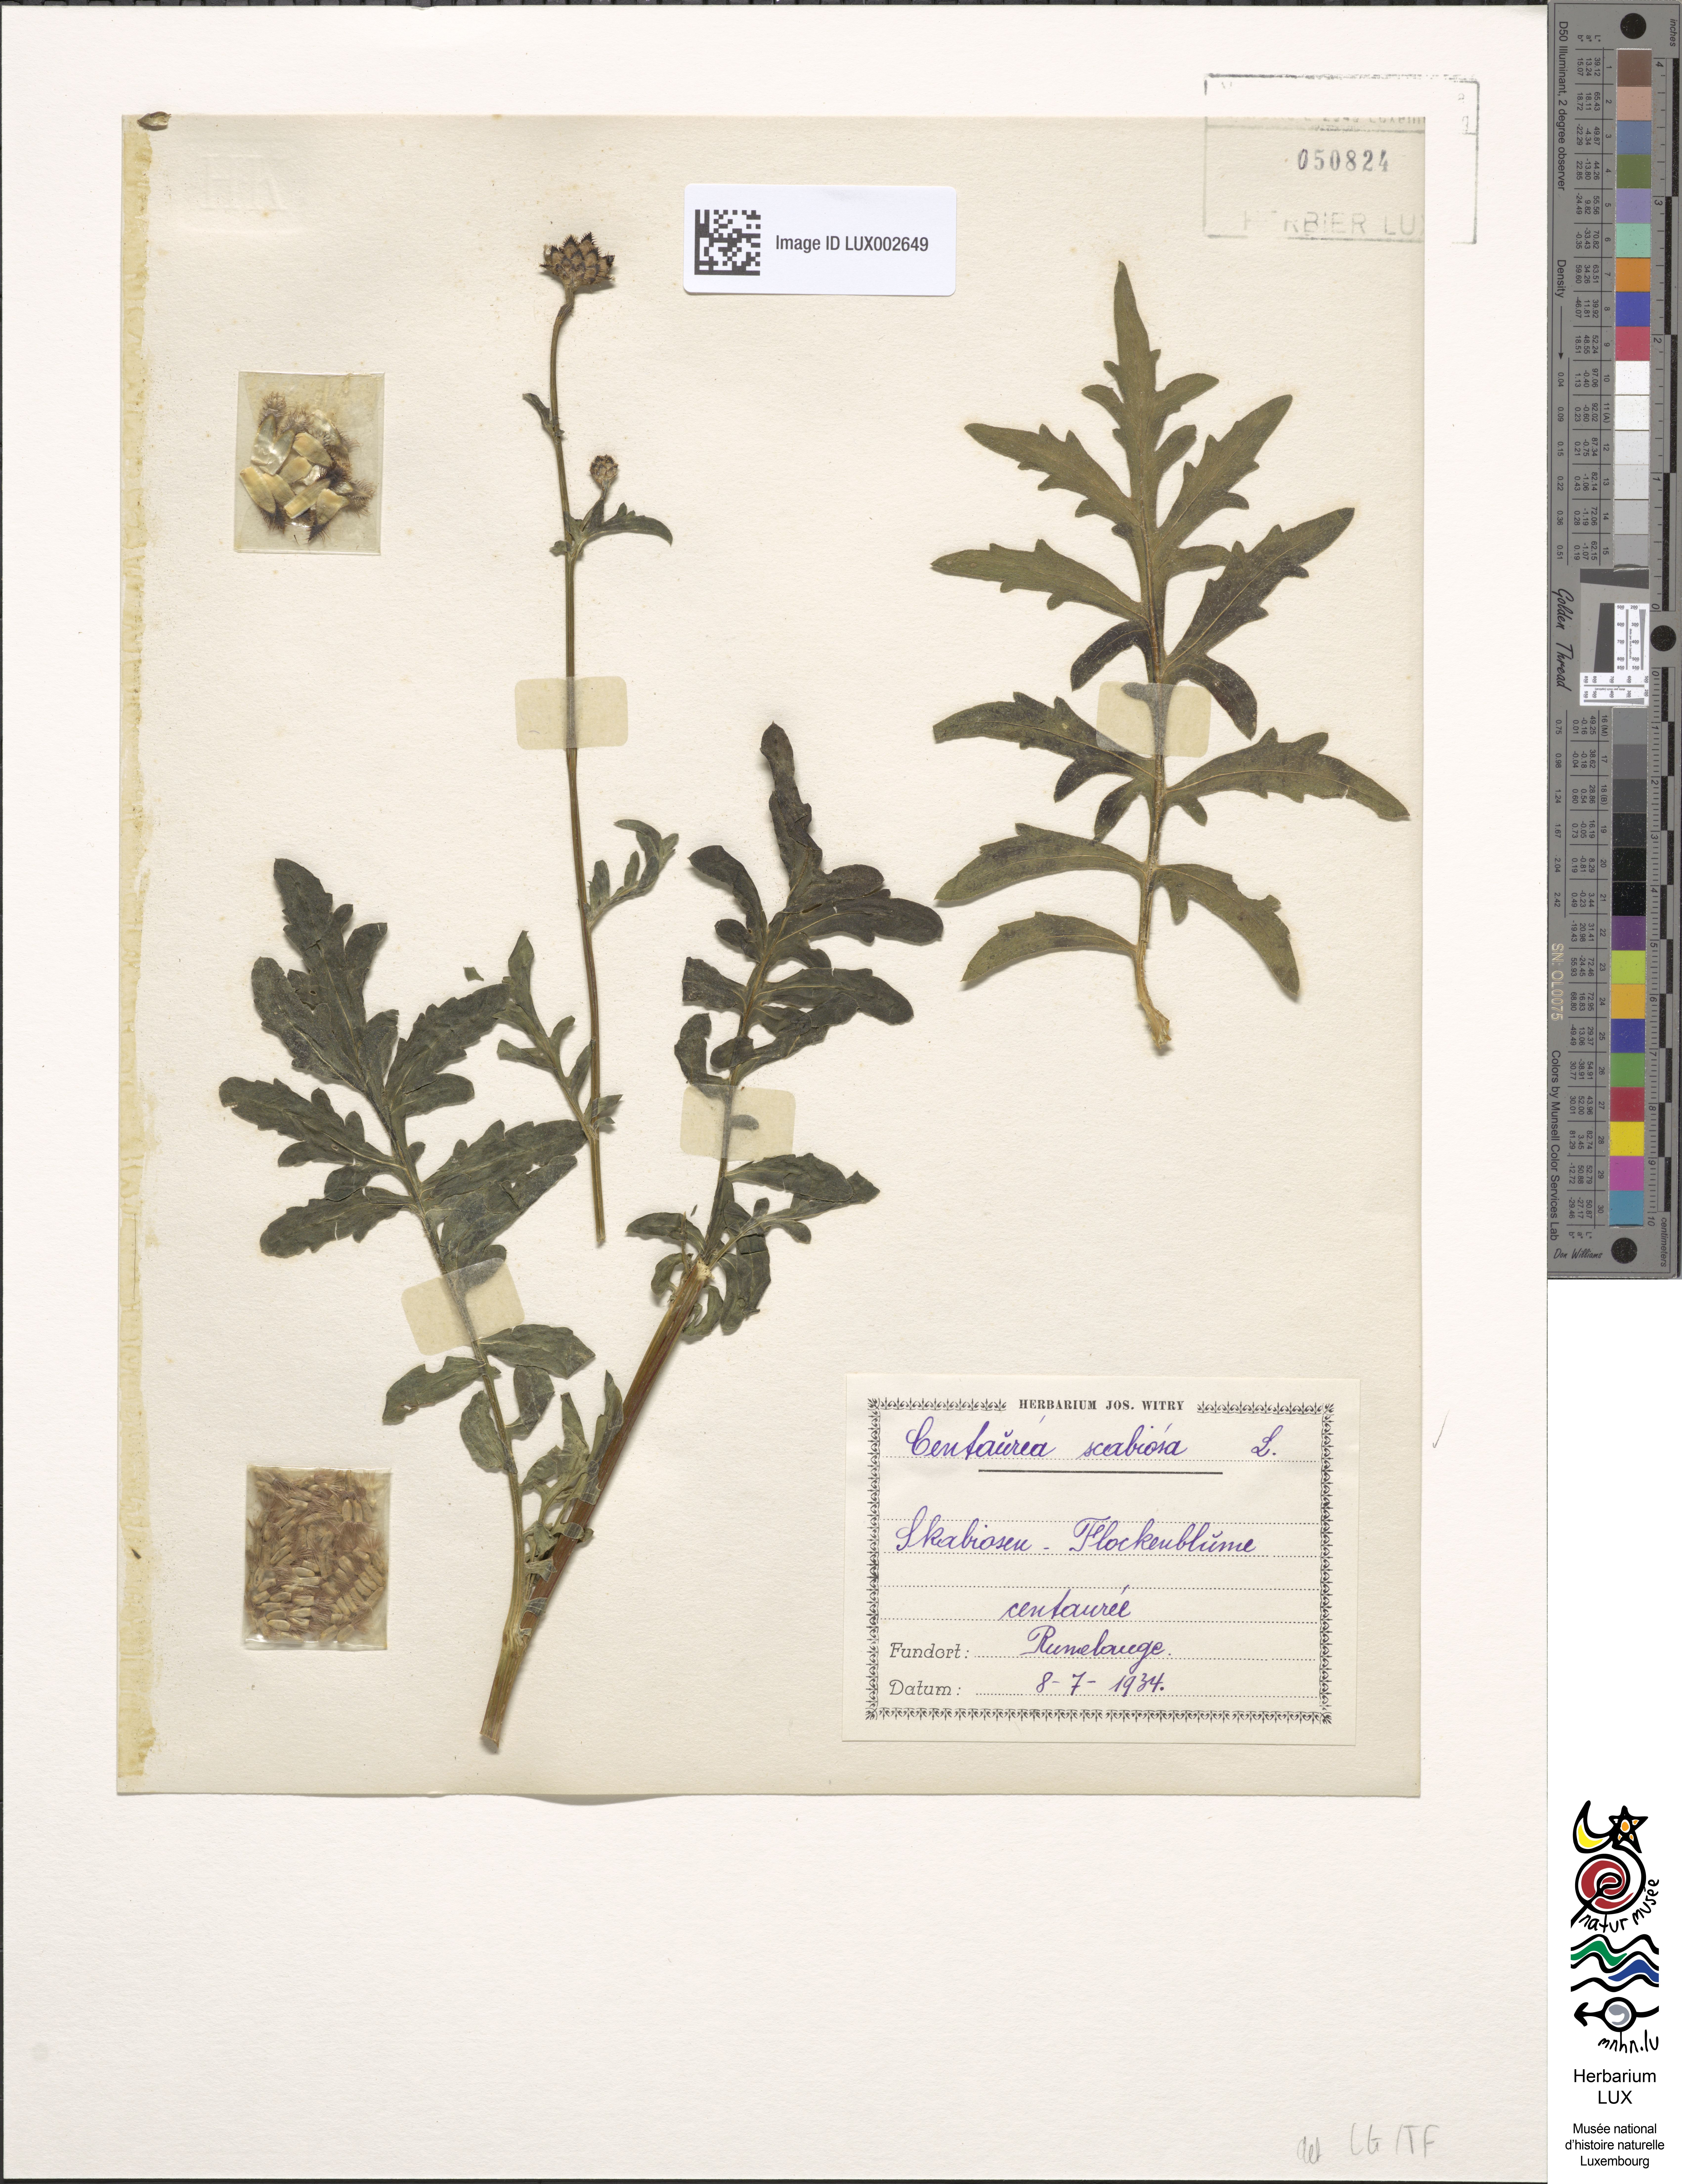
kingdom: Plantae
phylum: Tracheophyta
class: Magnoliopsida
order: Asterales
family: Asteraceae
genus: Centaurea
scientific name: Centaurea scabiosa
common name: Greater knapweed
